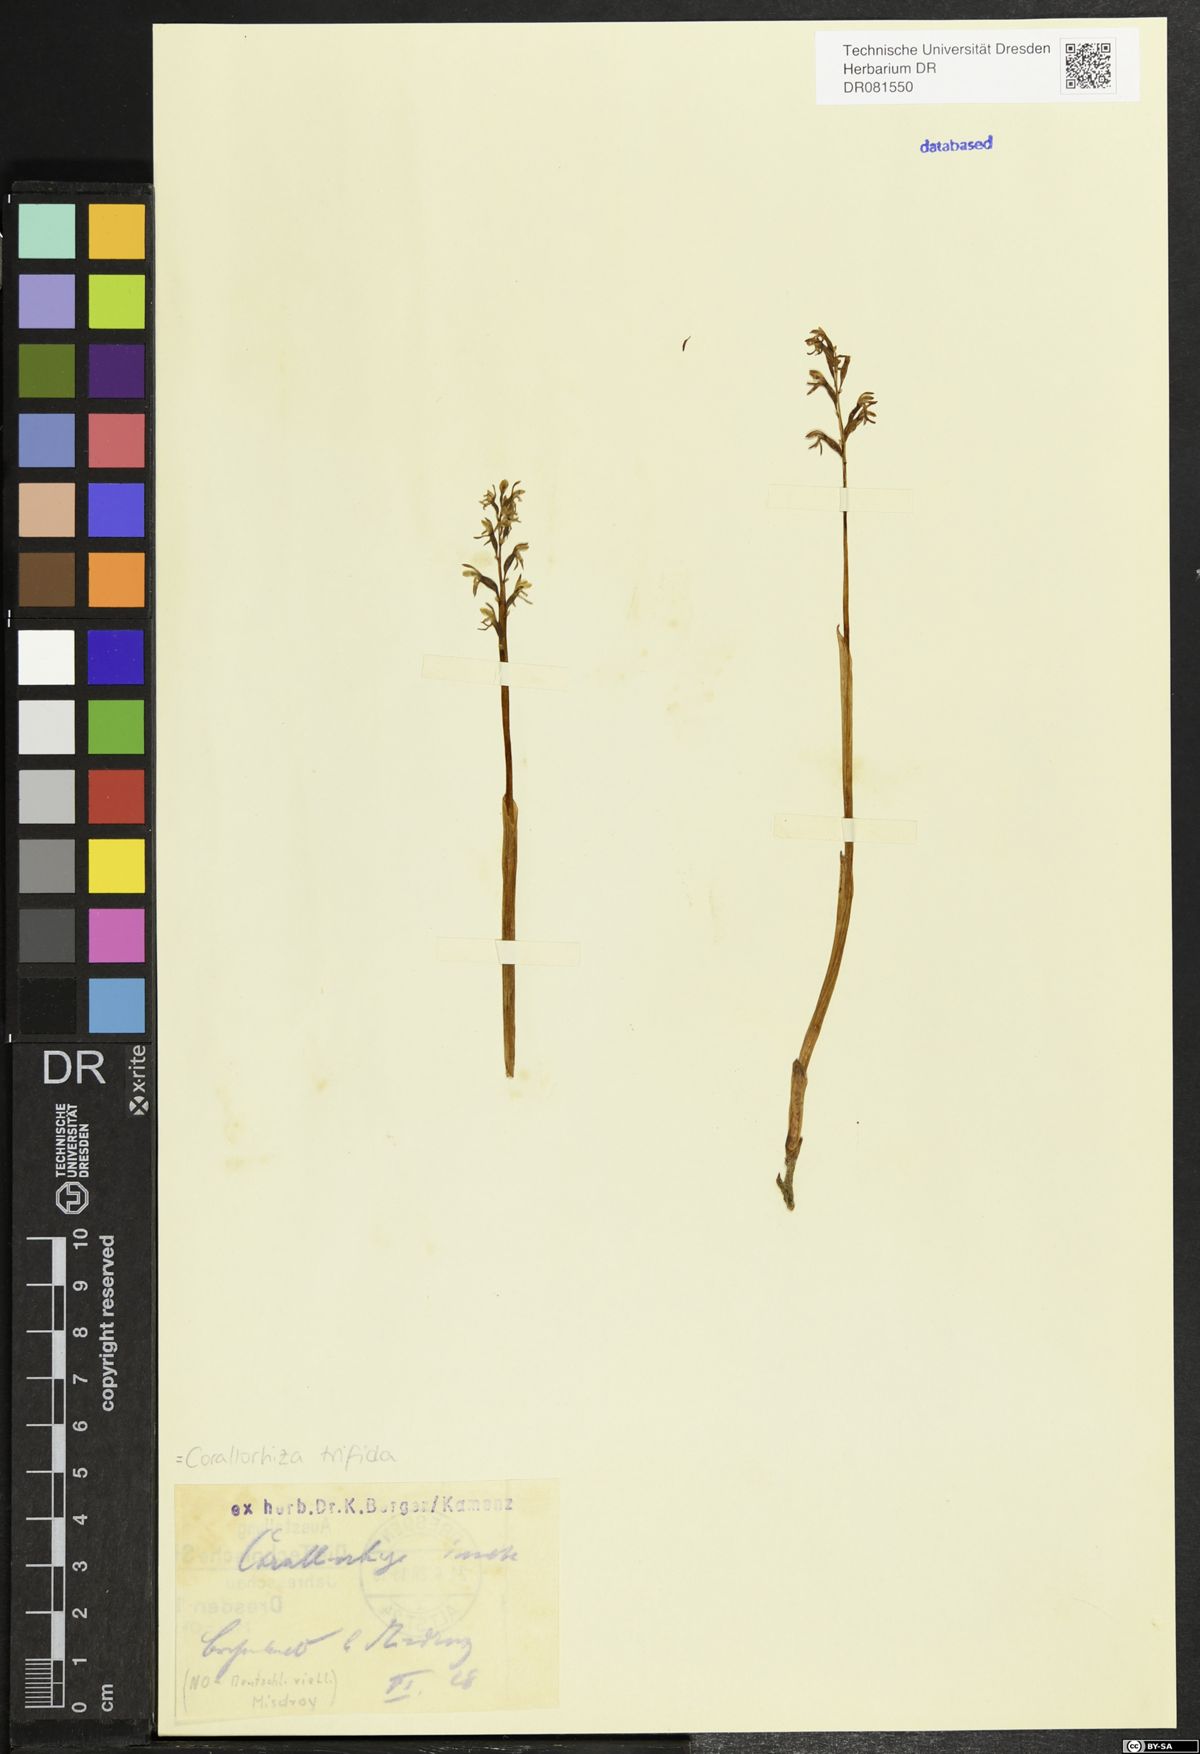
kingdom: Plantae
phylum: Tracheophyta
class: Liliopsida
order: Asparagales
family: Orchidaceae
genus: Corallorhiza
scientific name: Corallorhiza trifida
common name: Yellow coralroot
